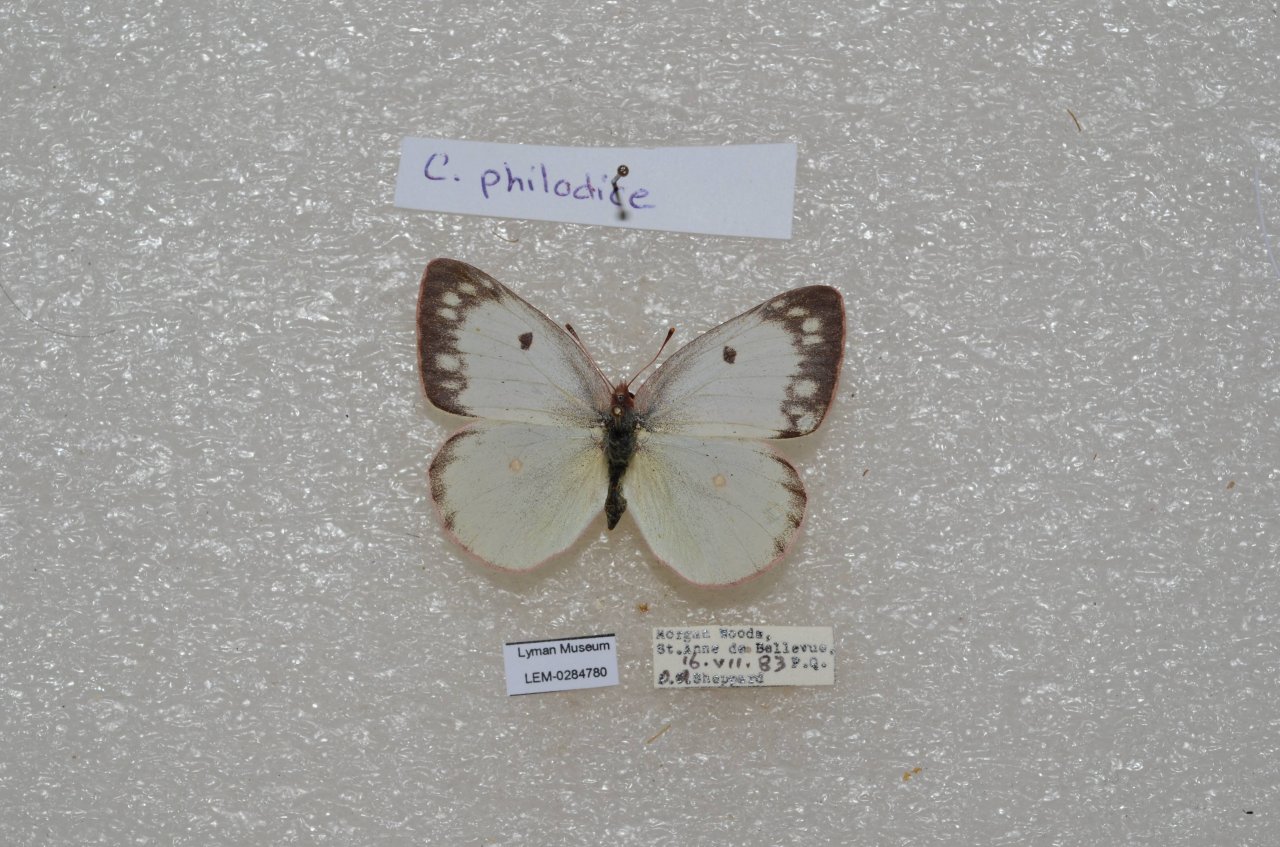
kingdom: Animalia
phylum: Arthropoda
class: Insecta
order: Lepidoptera
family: Pieridae
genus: Colias
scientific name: Colias philodice
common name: Clouded Sulphur
